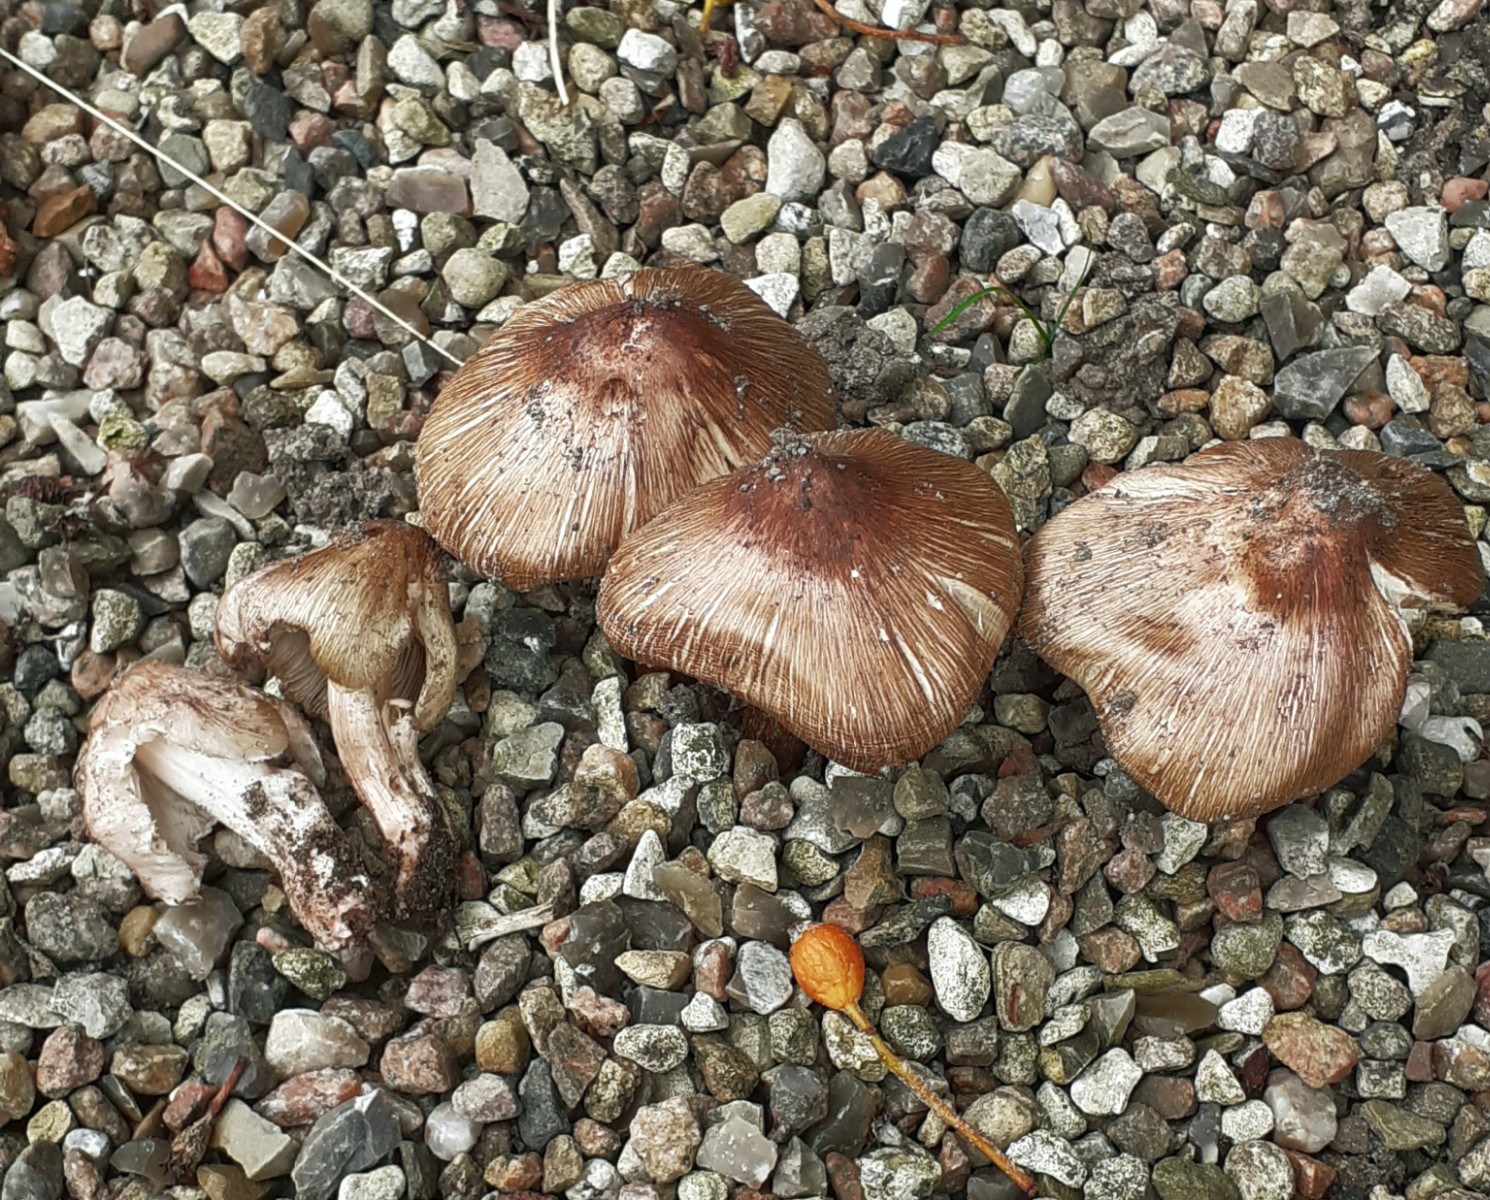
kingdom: Fungi
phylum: Basidiomycota
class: Agaricomycetes
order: Agaricales
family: Inocybaceae
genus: Inosperma
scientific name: Inosperma
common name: Trævlhat
